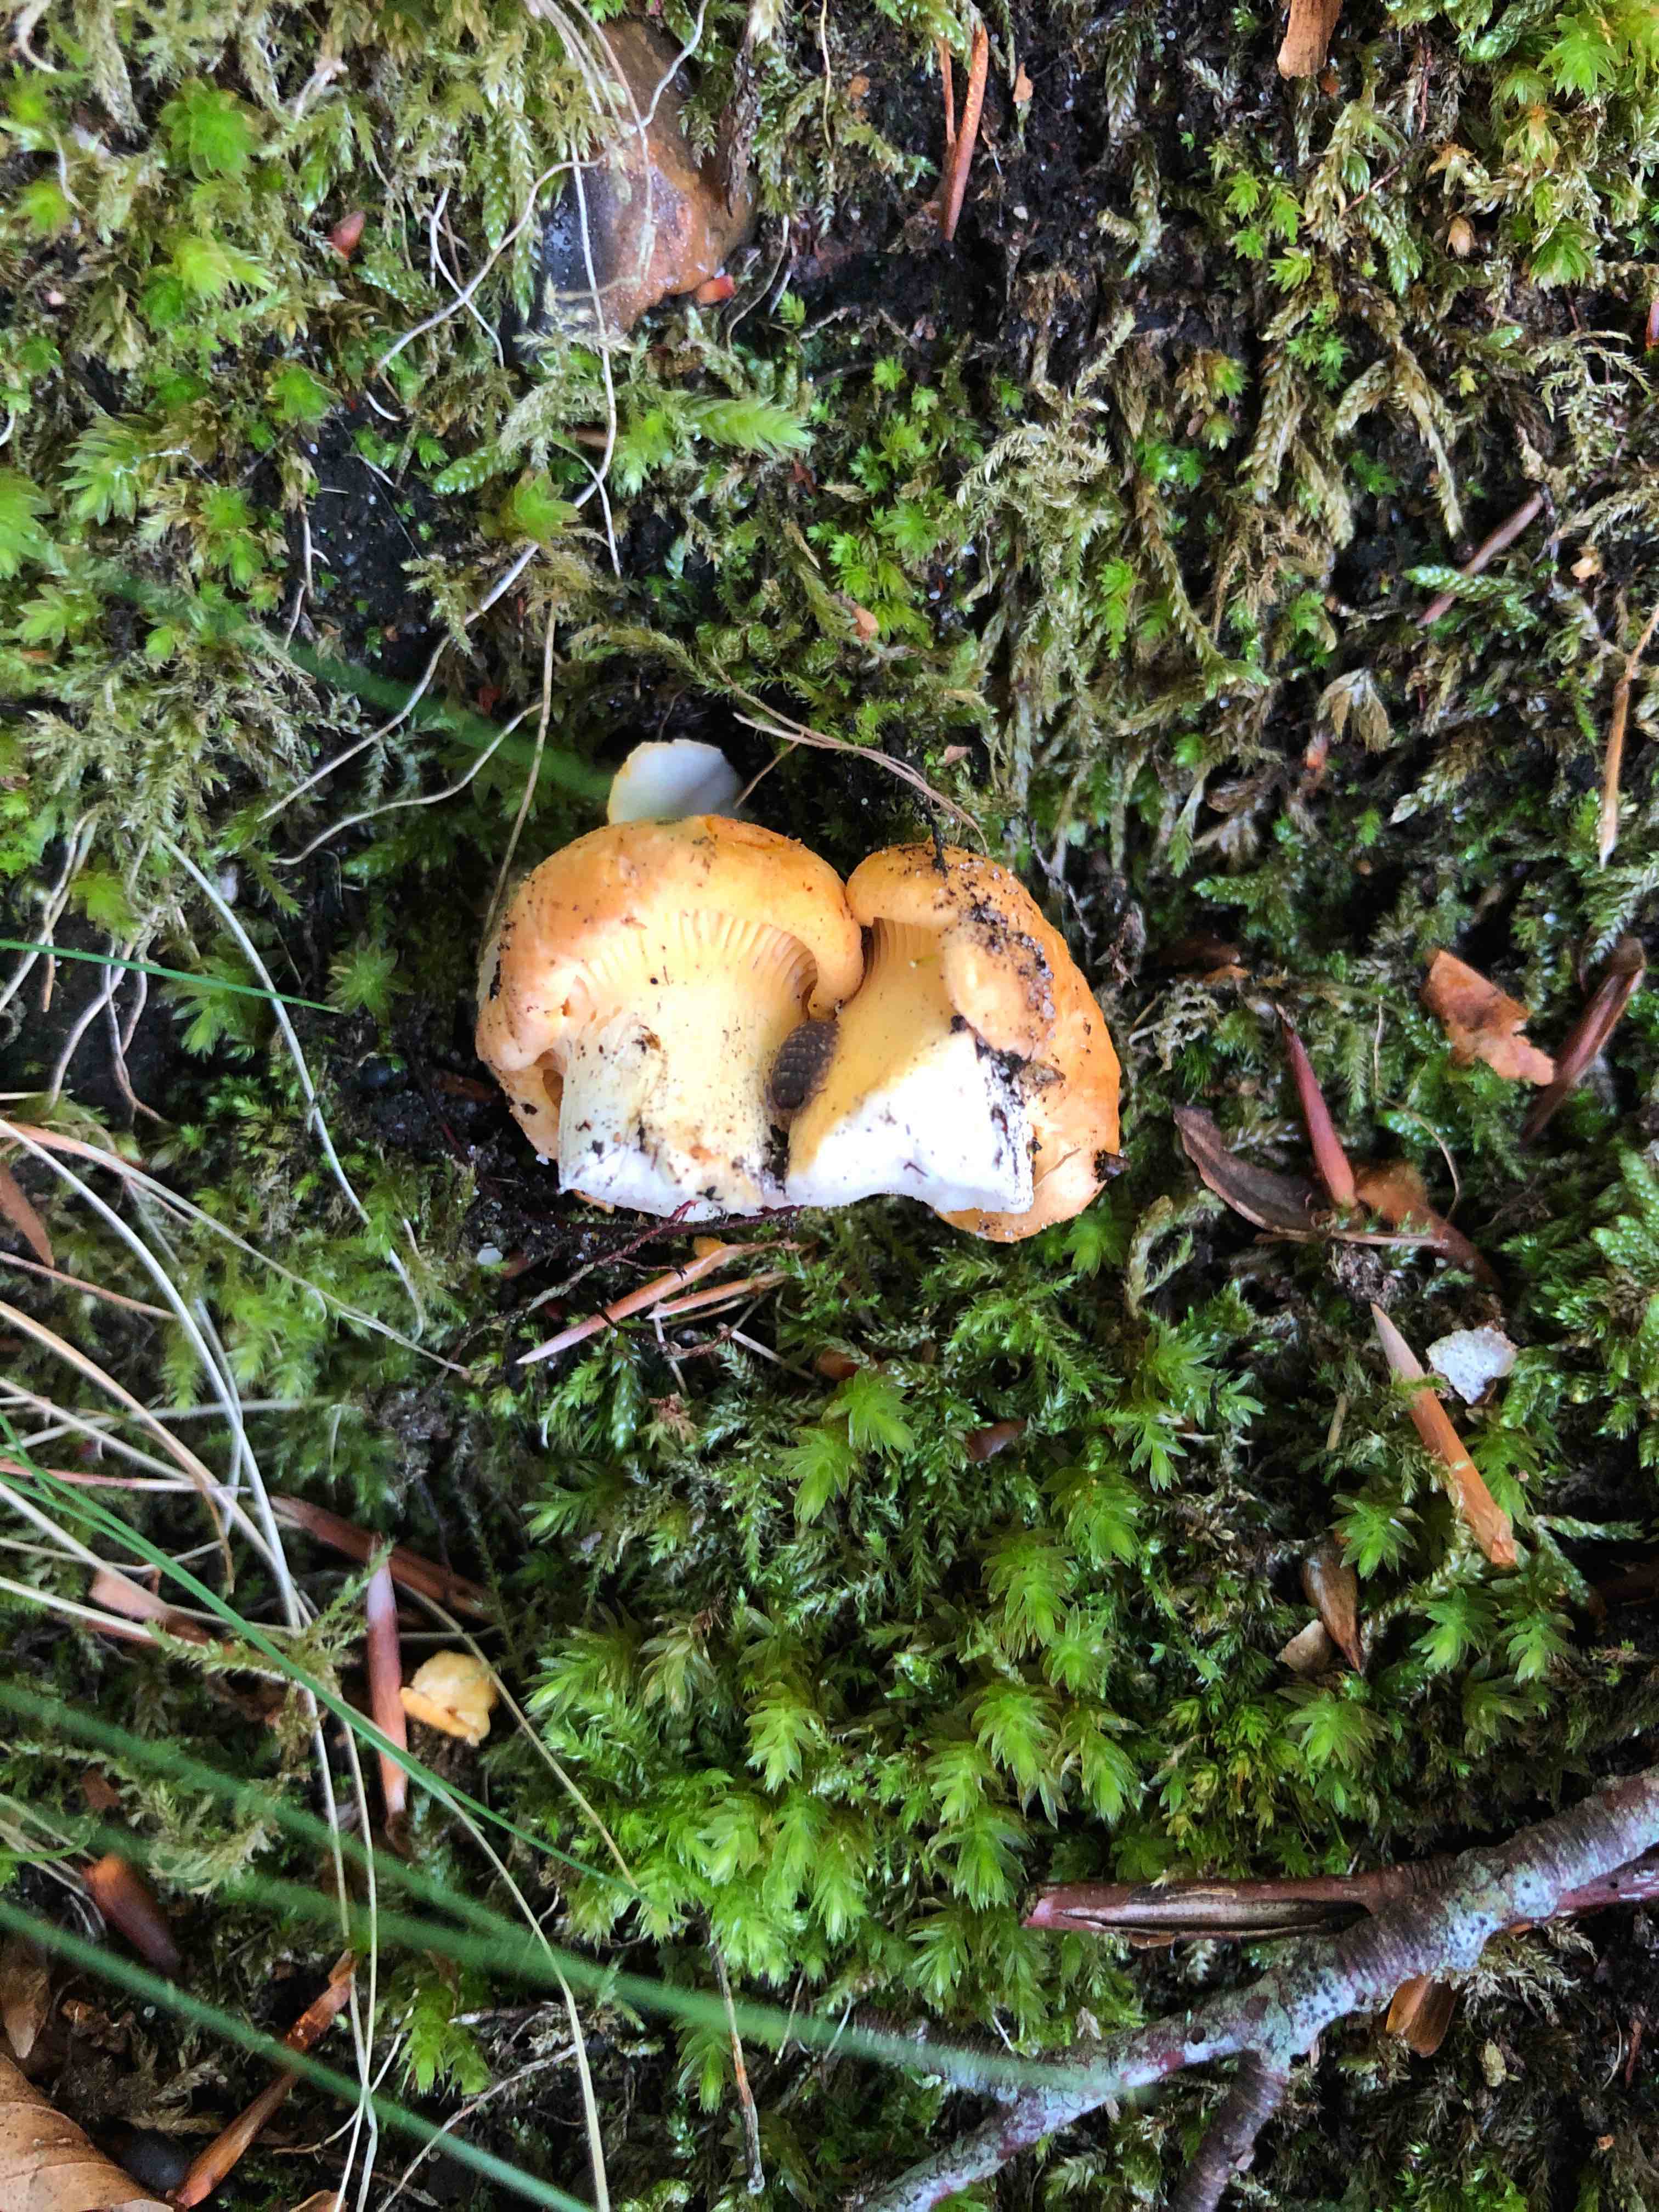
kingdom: Fungi
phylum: Basidiomycota
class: Agaricomycetes
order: Cantharellales
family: Hydnaceae
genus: Cantharellus
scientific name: Cantharellus
